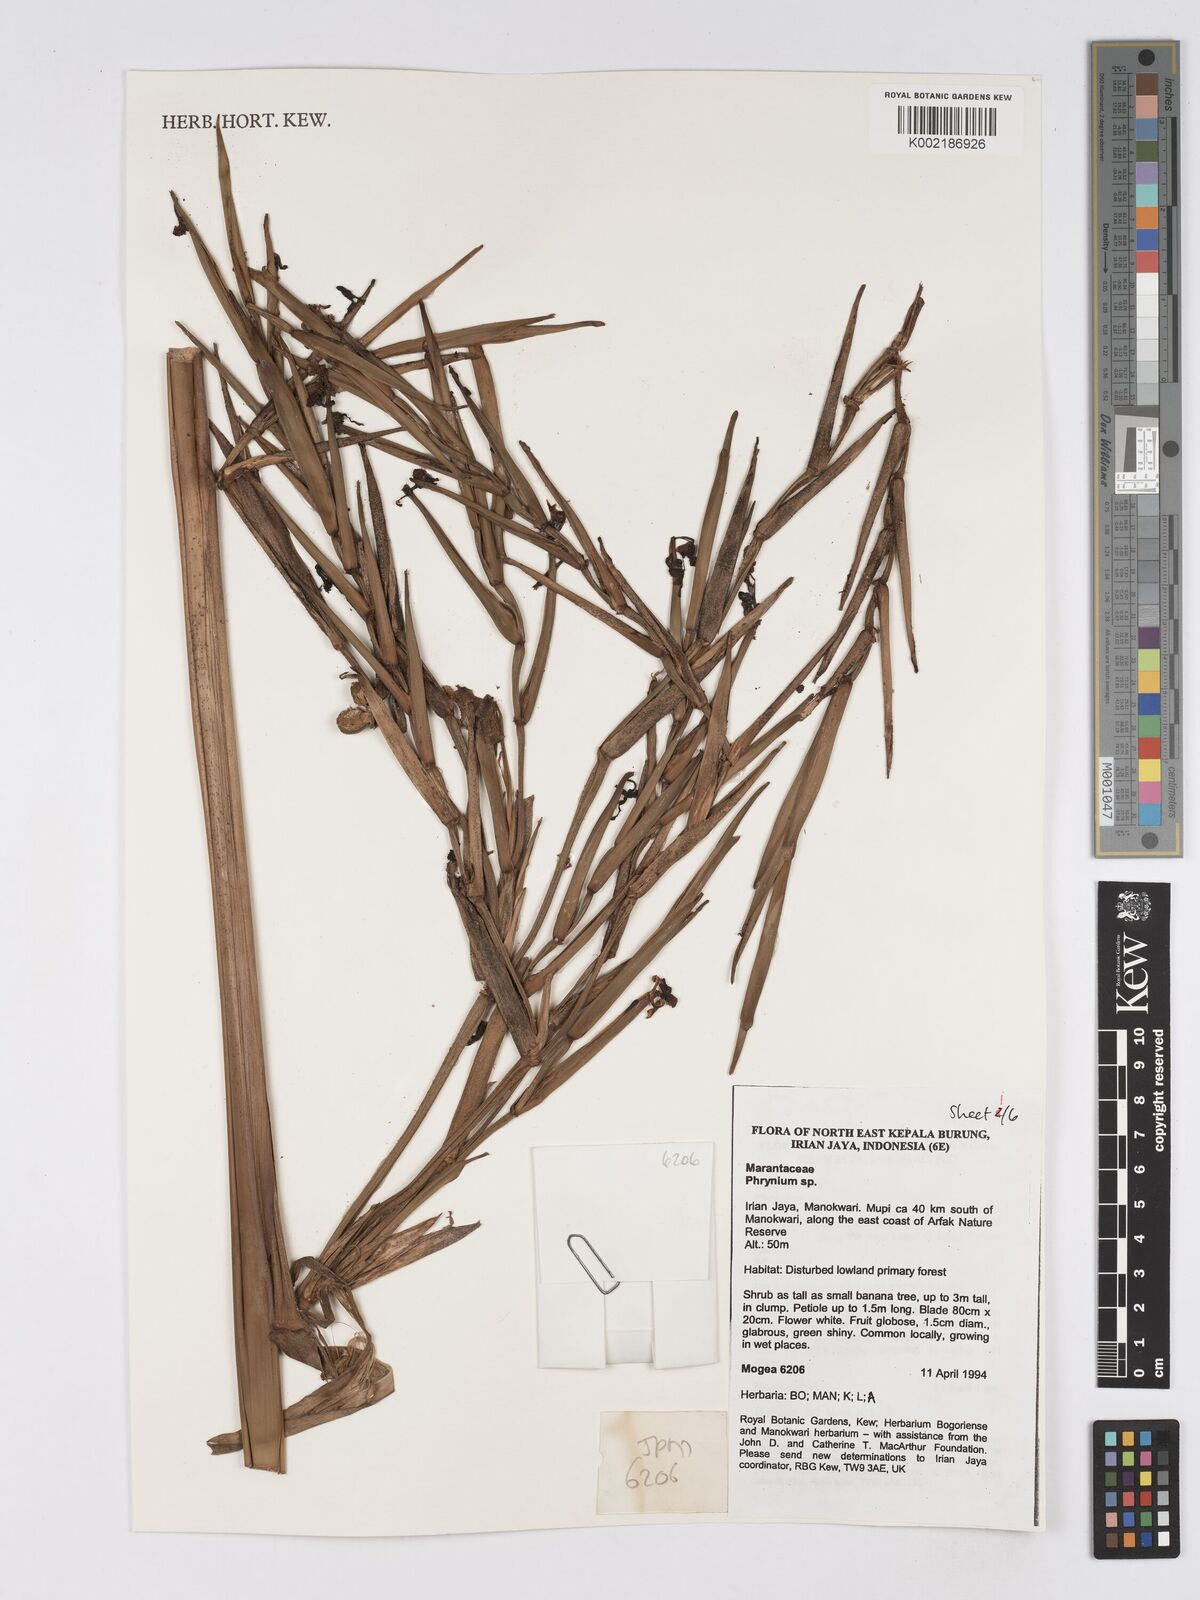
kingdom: Plantae
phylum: Tracheophyta
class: Liliopsida
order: Zingiberales
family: Marantaceae
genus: Phrynium
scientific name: Phrynium
